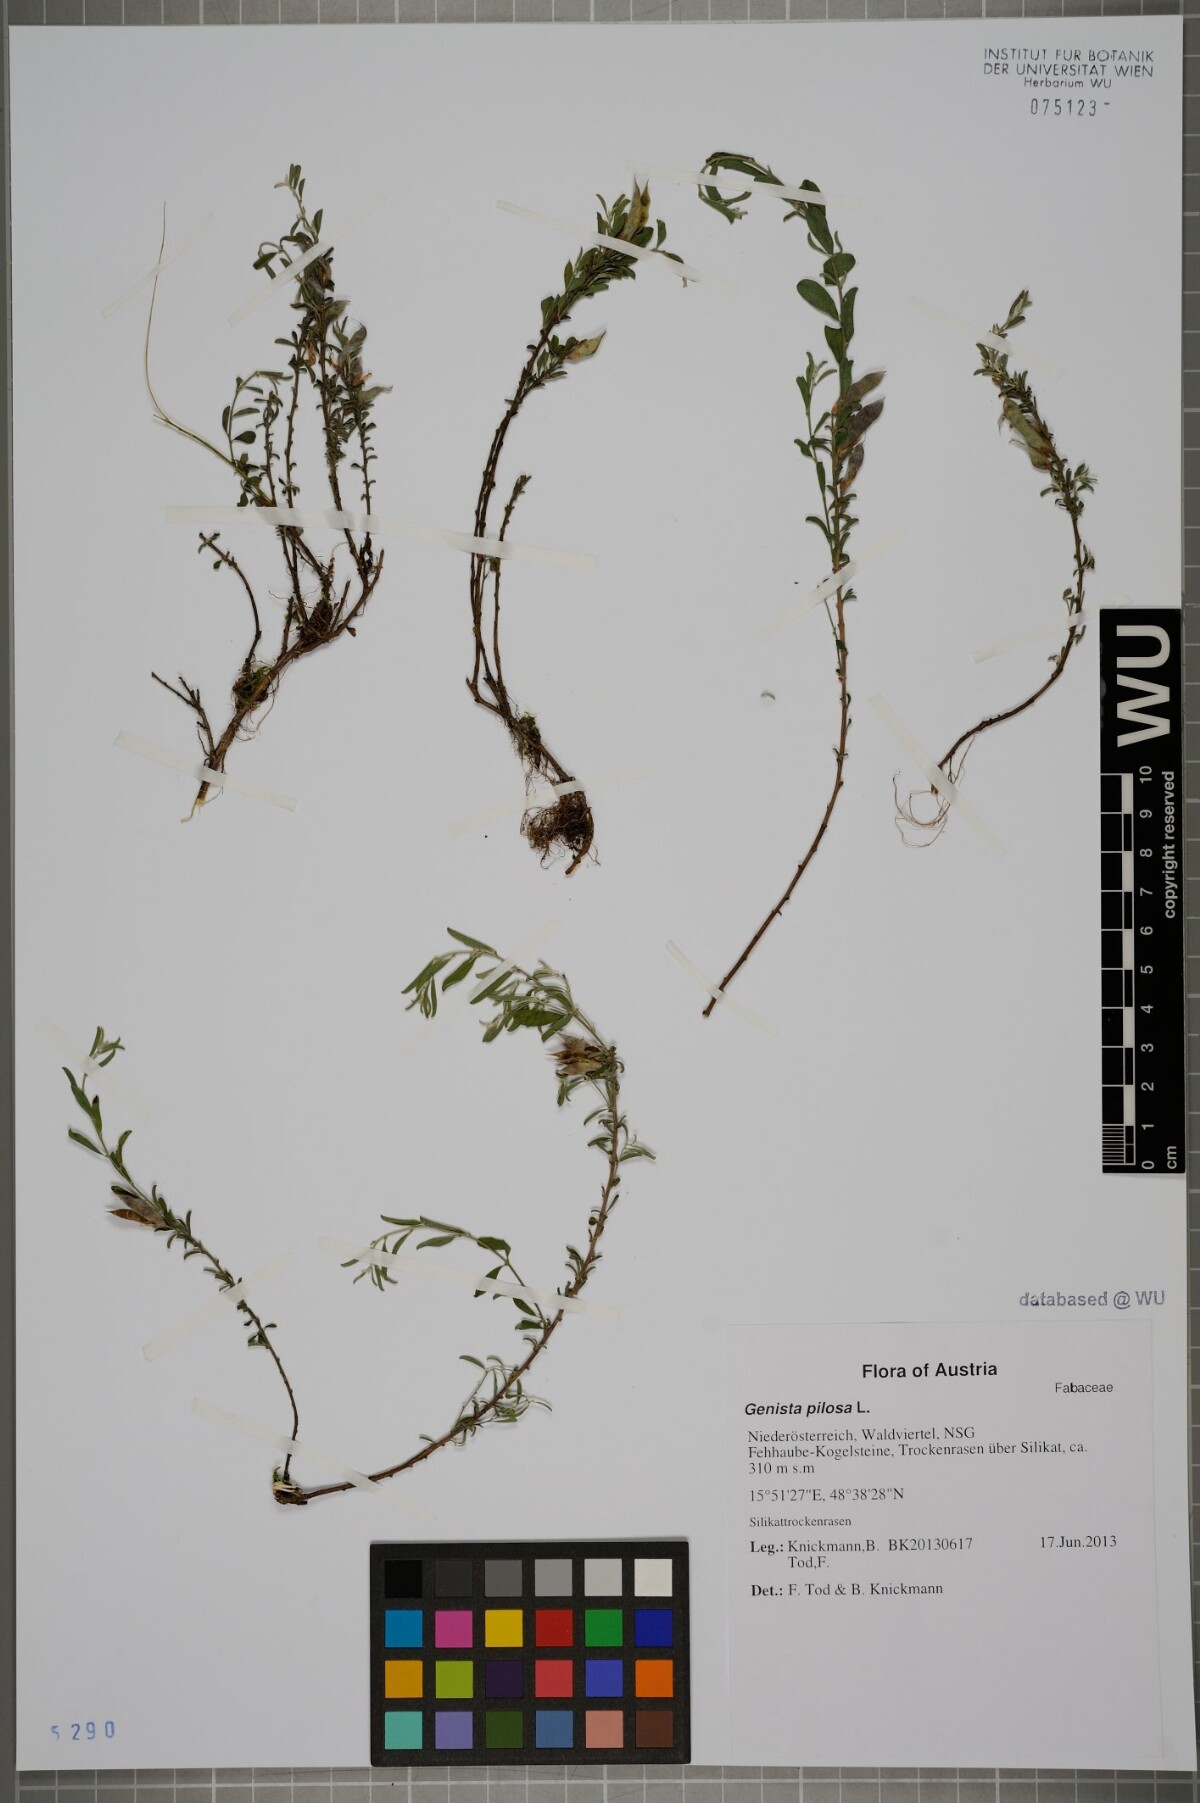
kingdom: Plantae
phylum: Tracheophyta
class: Magnoliopsida
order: Fabales
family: Fabaceae
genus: Genista
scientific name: Genista pilosa
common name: Hairy greenweed
